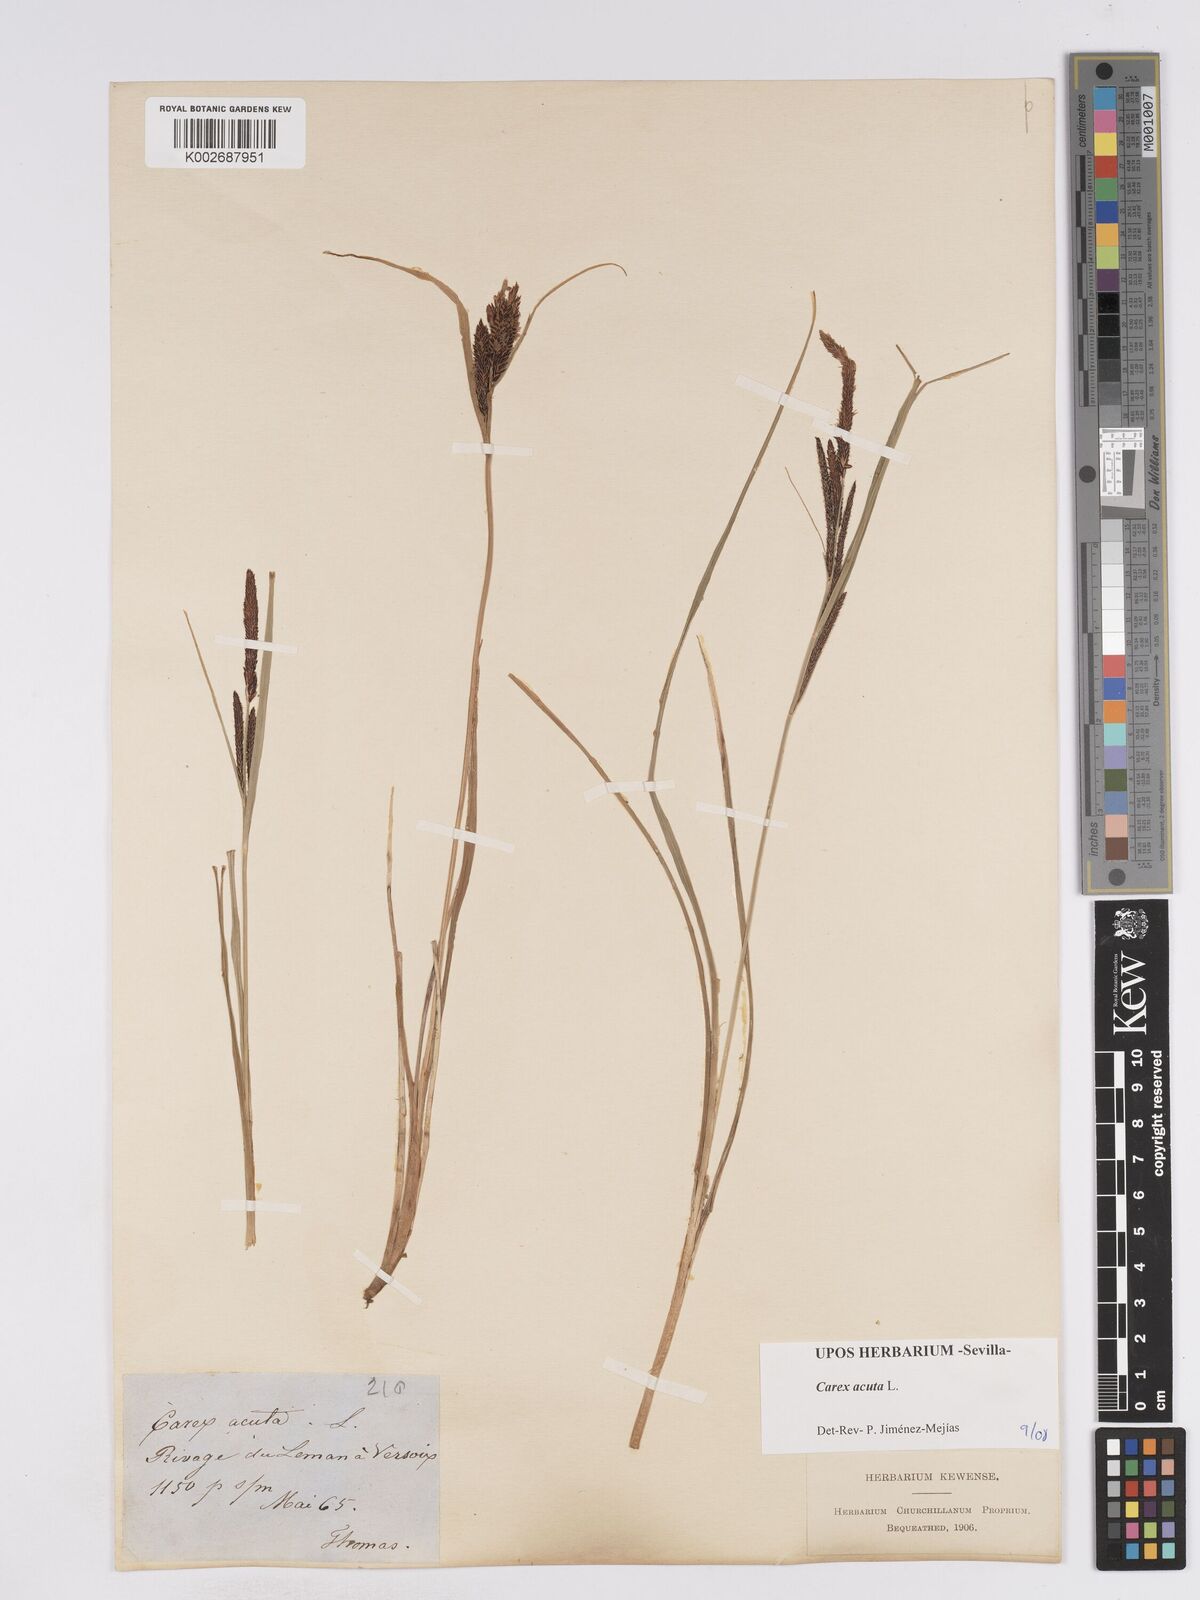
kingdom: Plantae
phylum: Tracheophyta
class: Liliopsida
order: Poales
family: Cyperaceae
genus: Carex
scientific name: Carex acuta
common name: Slender tufted-sedge
